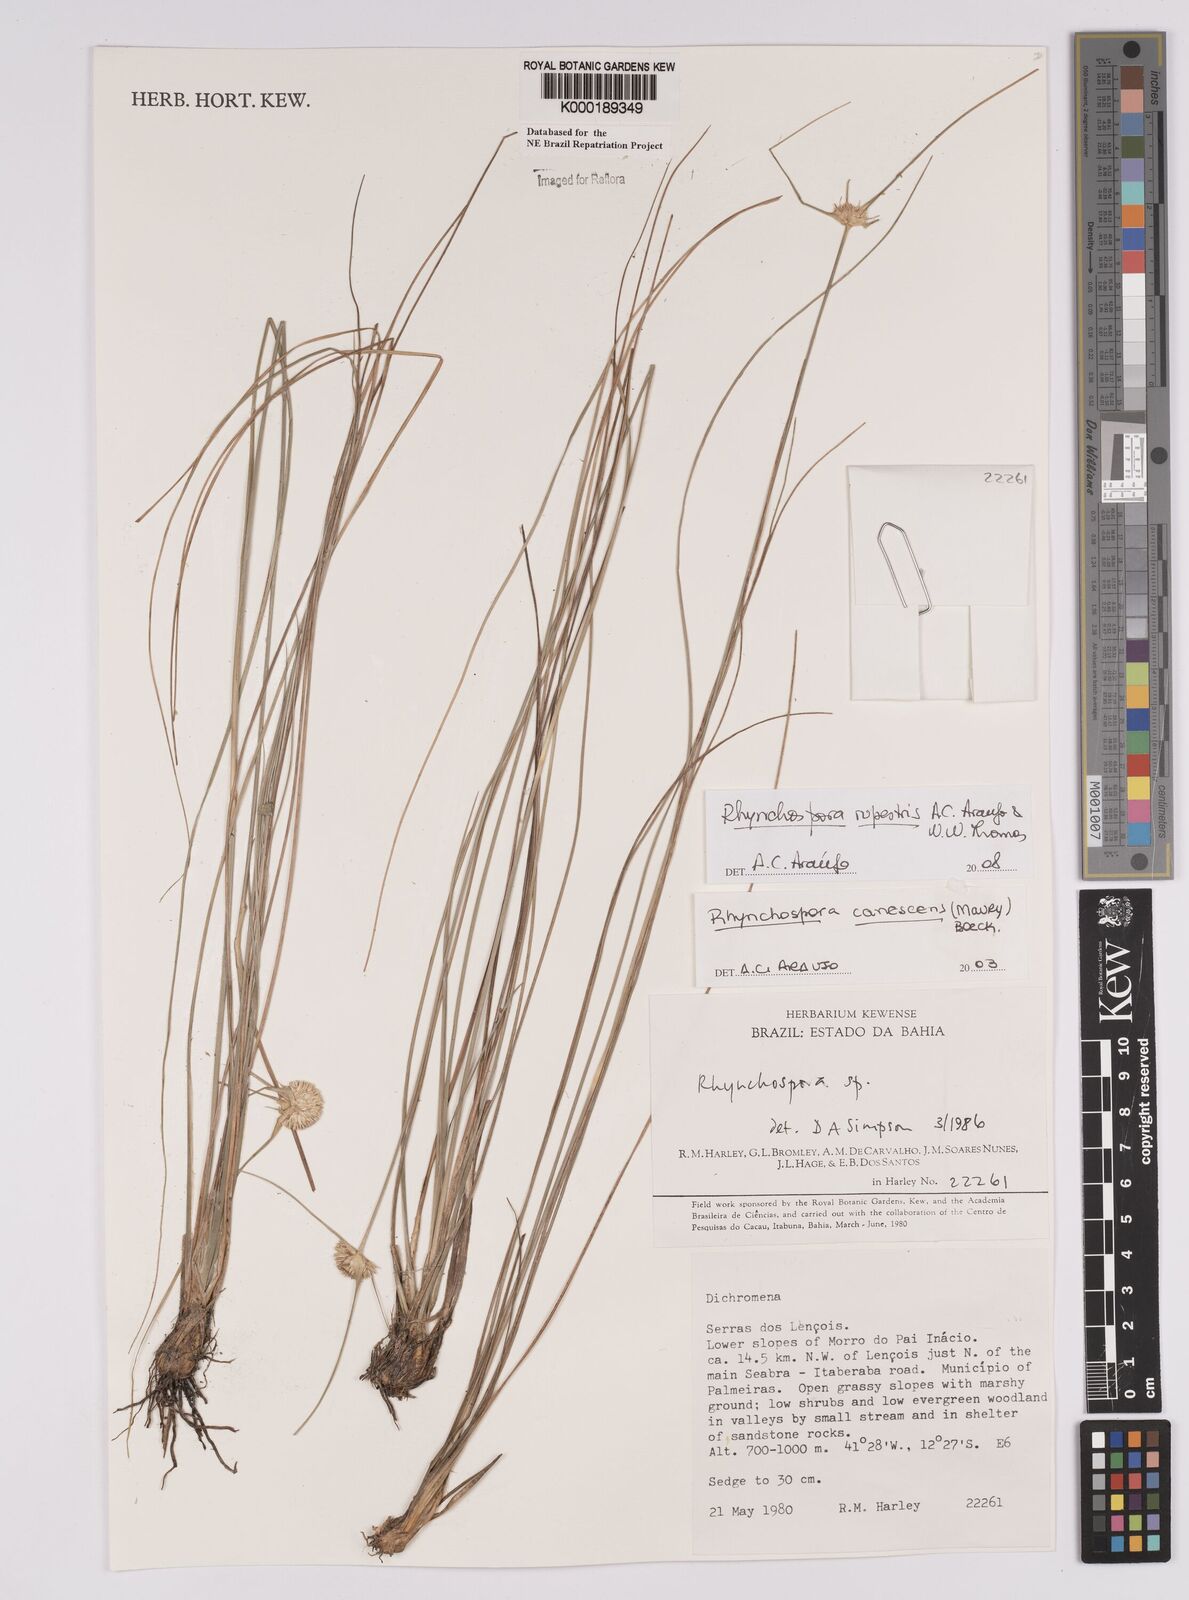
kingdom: Plantae
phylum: Tracheophyta
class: Liliopsida
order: Poales
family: Cyperaceae
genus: Rhynchospora
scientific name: Rhynchospora albiceps
